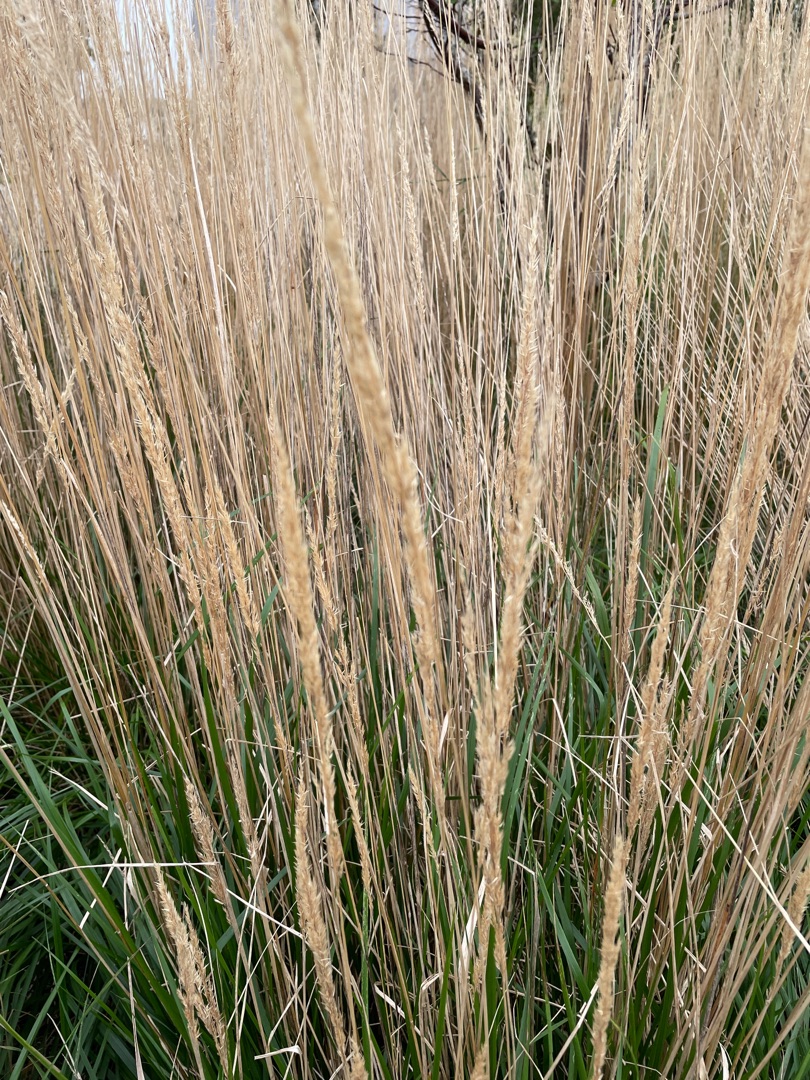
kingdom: Plantae
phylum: Tracheophyta
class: Liliopsida
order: Poales
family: Poaceae
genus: Calamagrostis
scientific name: Calamagrostis epigejos
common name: Bjerg-rørhvene
